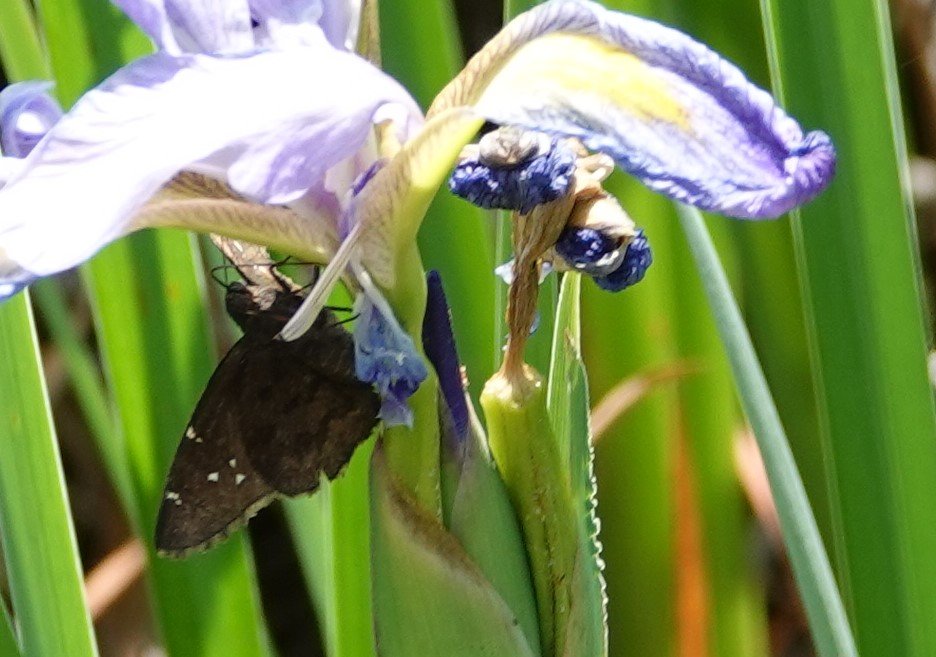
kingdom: Animalia
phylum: Arthropoda
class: Insecta
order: Lepidoptera
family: Hesperiidae
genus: Autochton
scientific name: Autochton
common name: Northern Cloudywing
